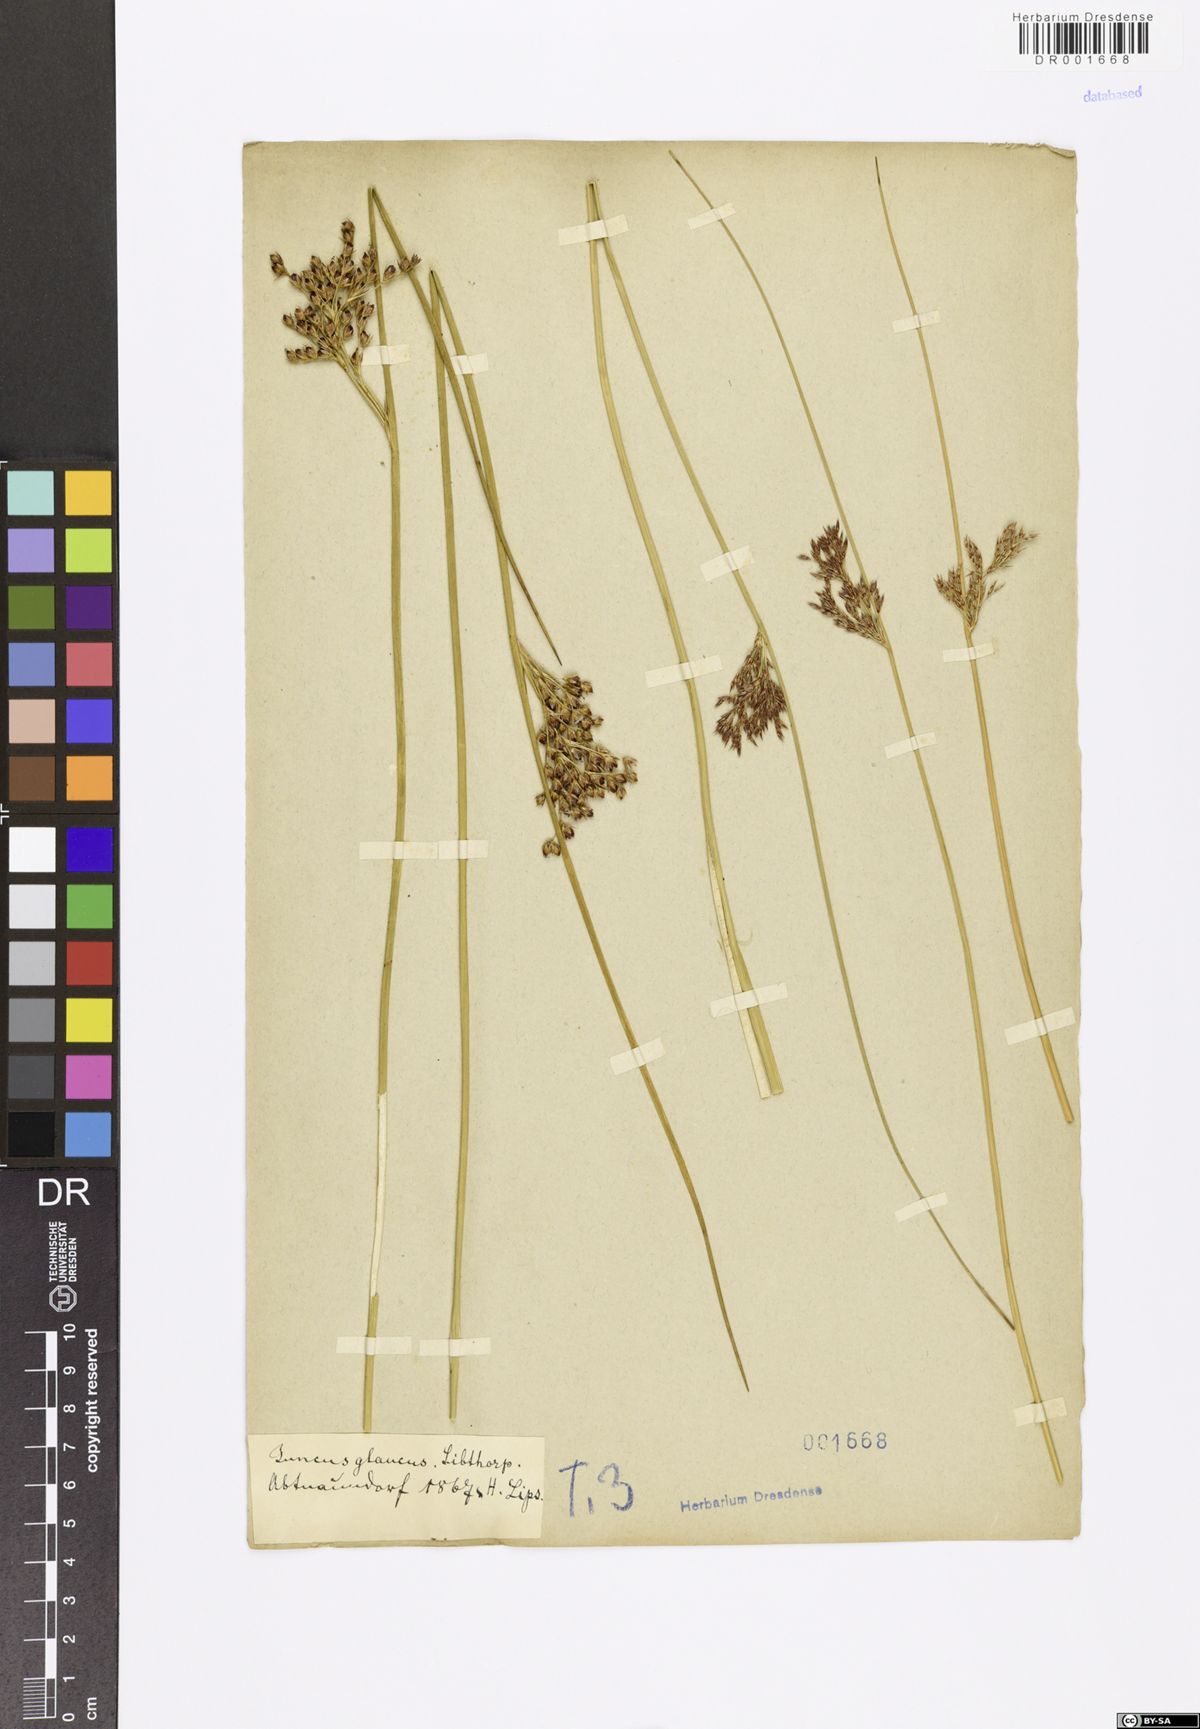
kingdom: Plantae
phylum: Tracheophyta
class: Liliopsida
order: Poales
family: Juncaceae
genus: Juncus
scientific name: Juncus inflexus
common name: Hard rush
